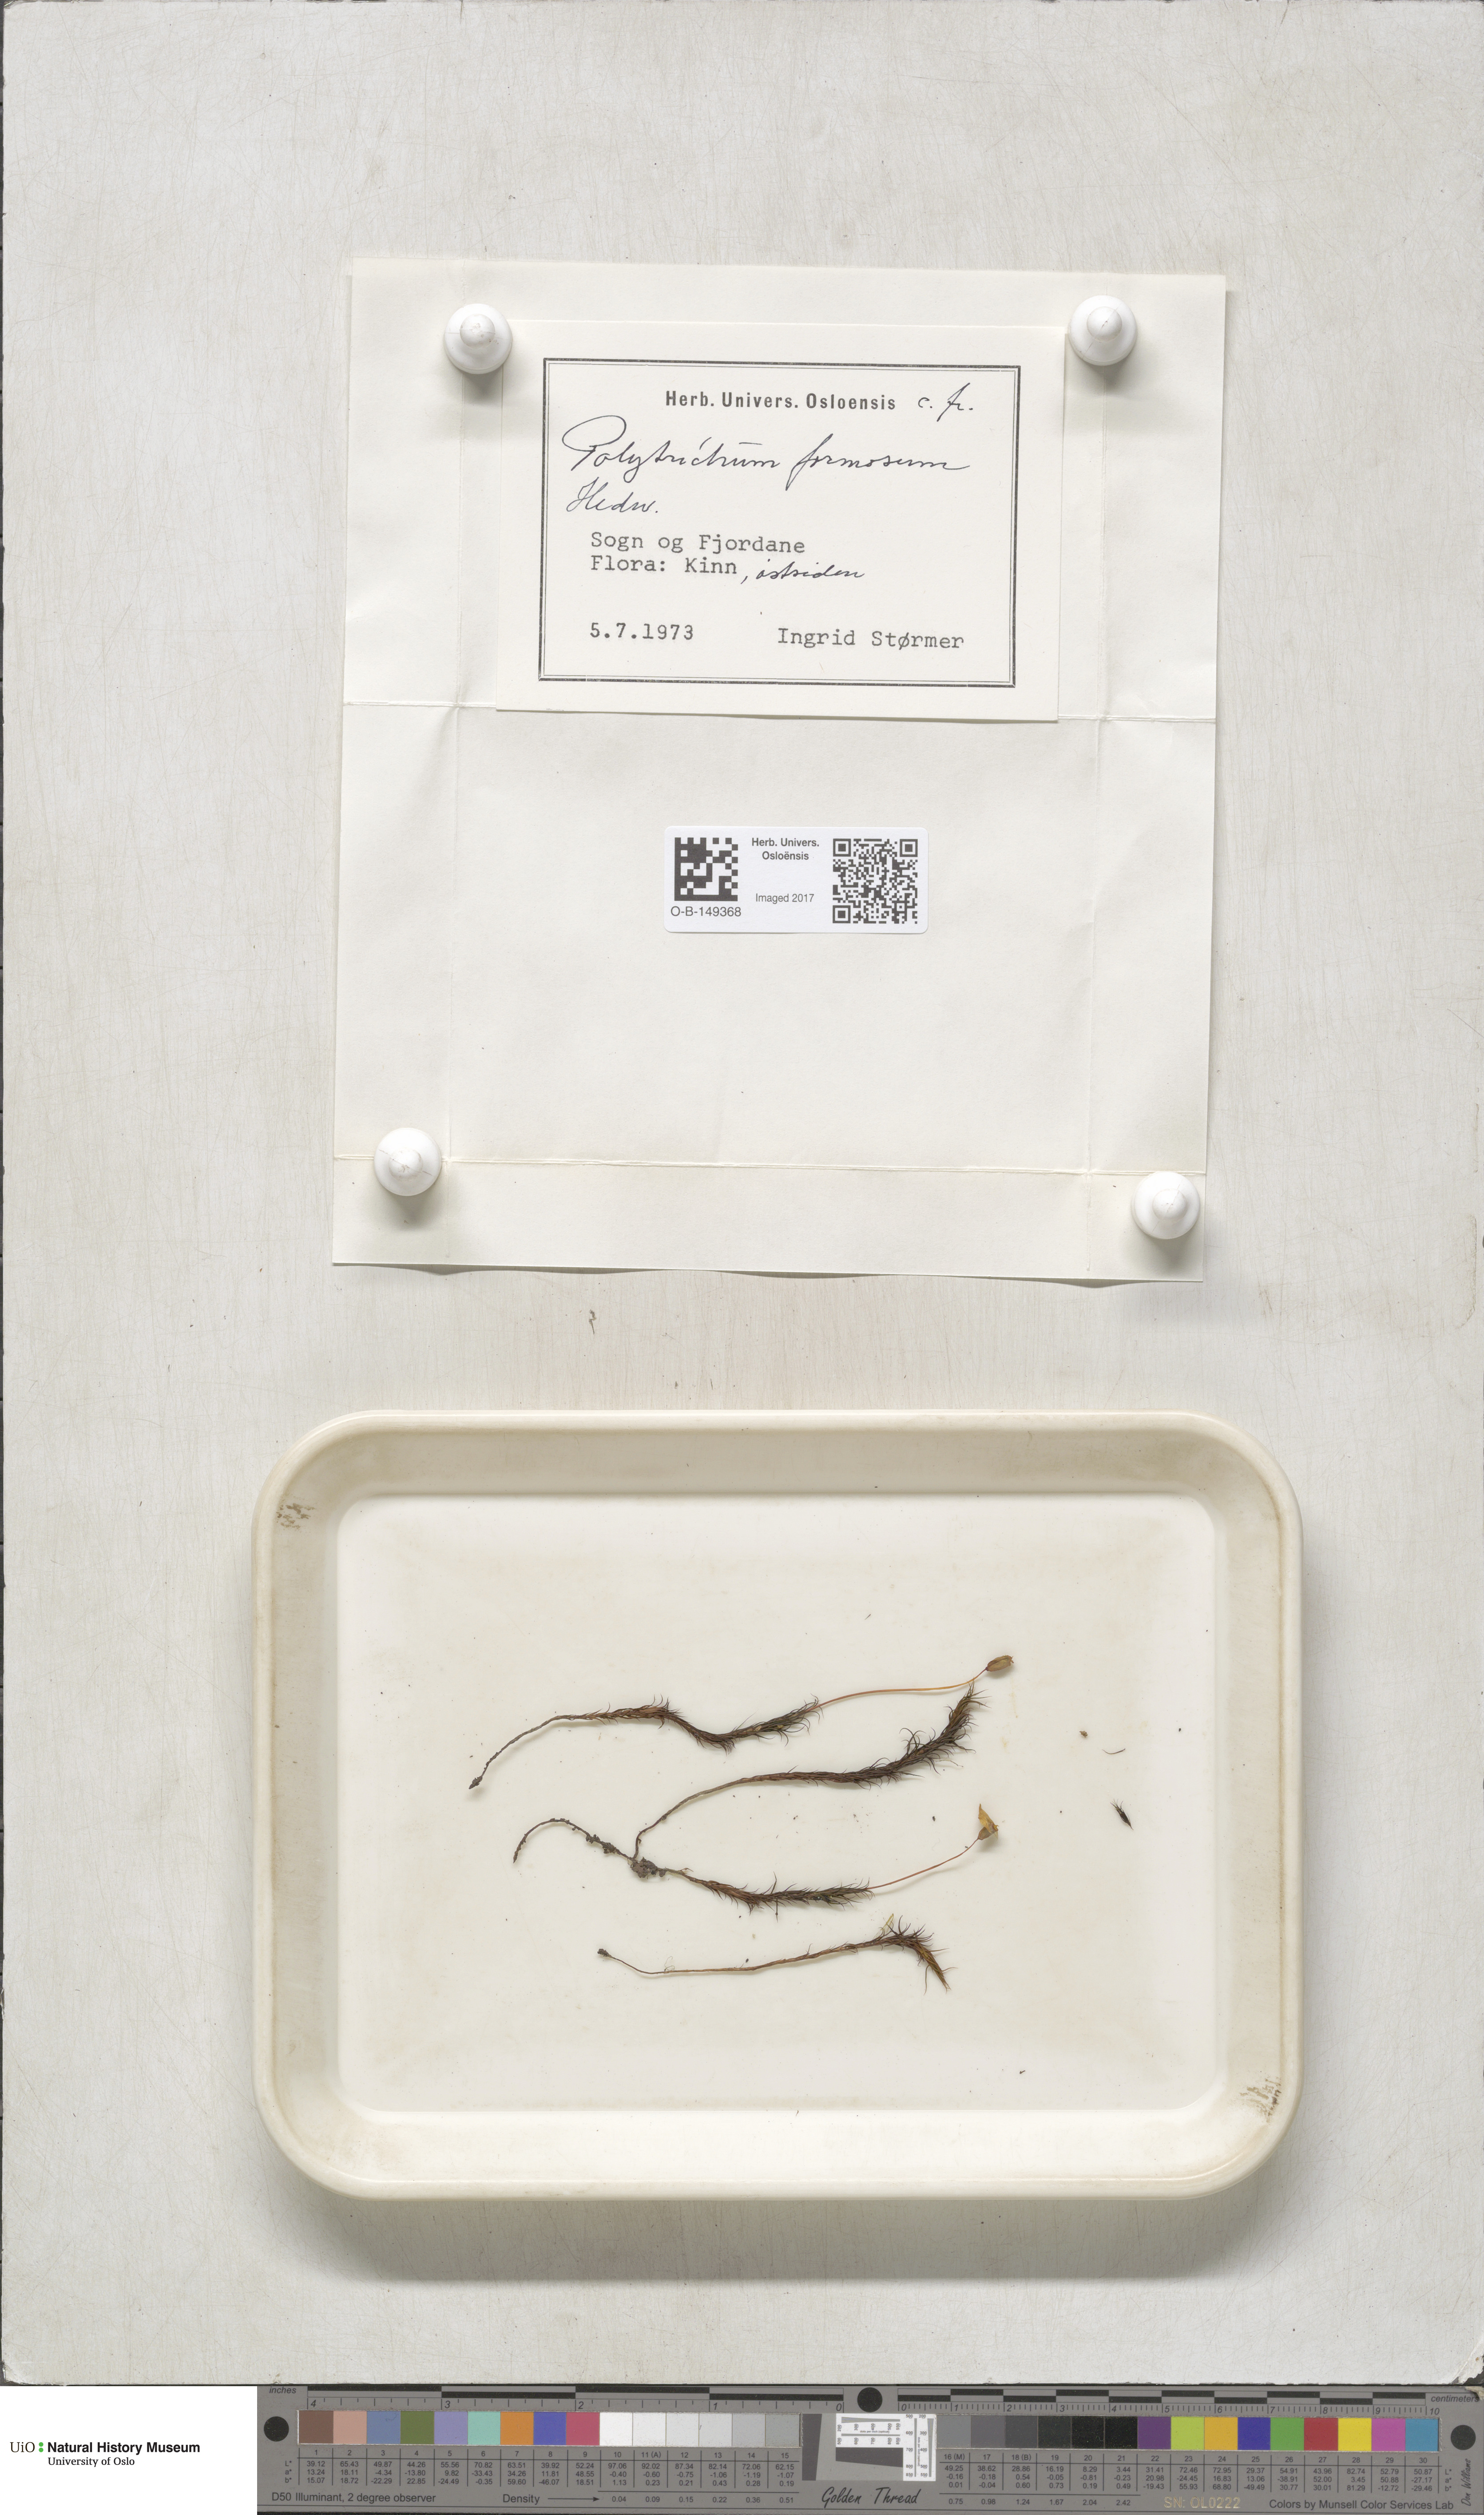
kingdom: Plantae
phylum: Bryophyta
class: Polytrichopsida
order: Polytrichales
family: Polytrichaceae
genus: Polytrichum
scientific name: Polytrichum formosum
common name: Bank haircap moss
